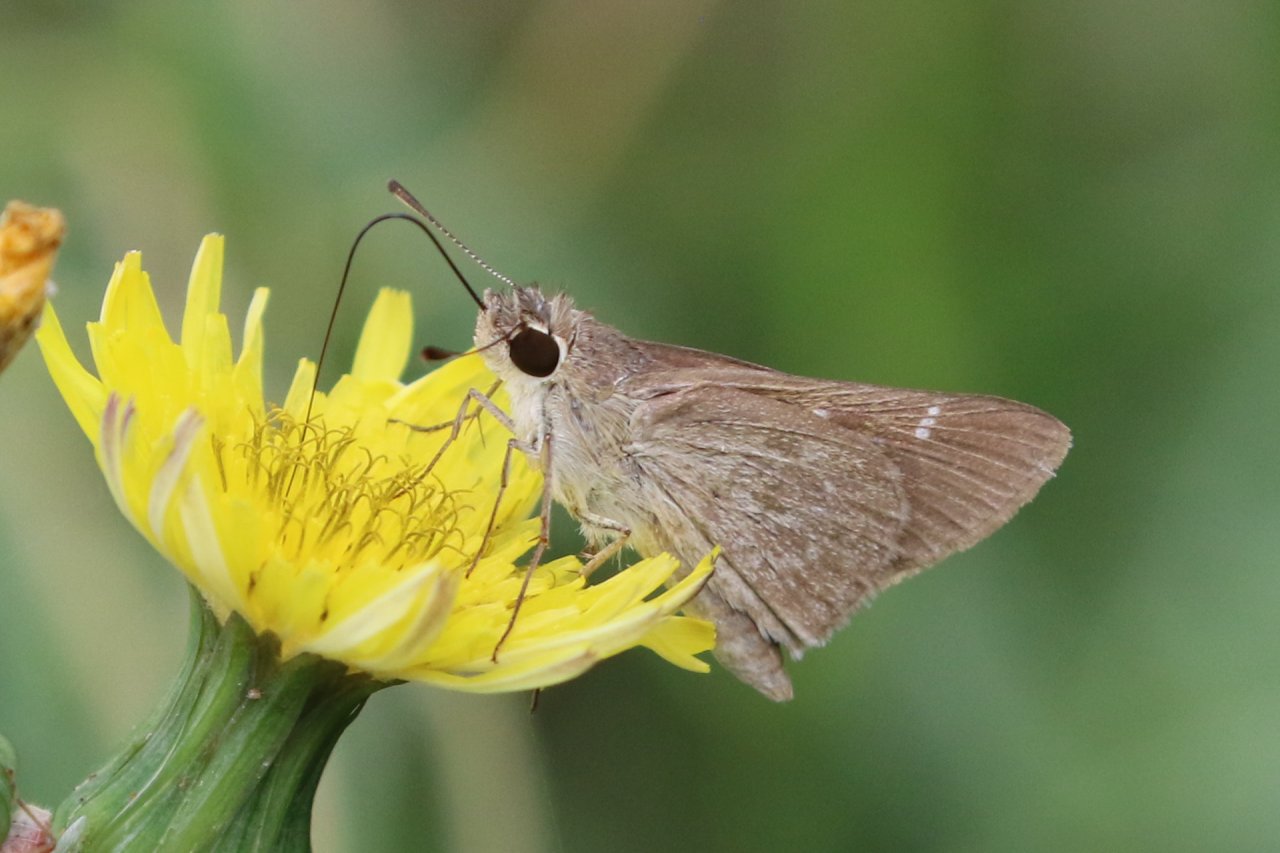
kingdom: Animalia
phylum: Arthropoda
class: Insecta
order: Lepidoptera
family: Hesperiidae
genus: Lerodea
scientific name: Lerodea eufala
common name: Eufala Skipper
